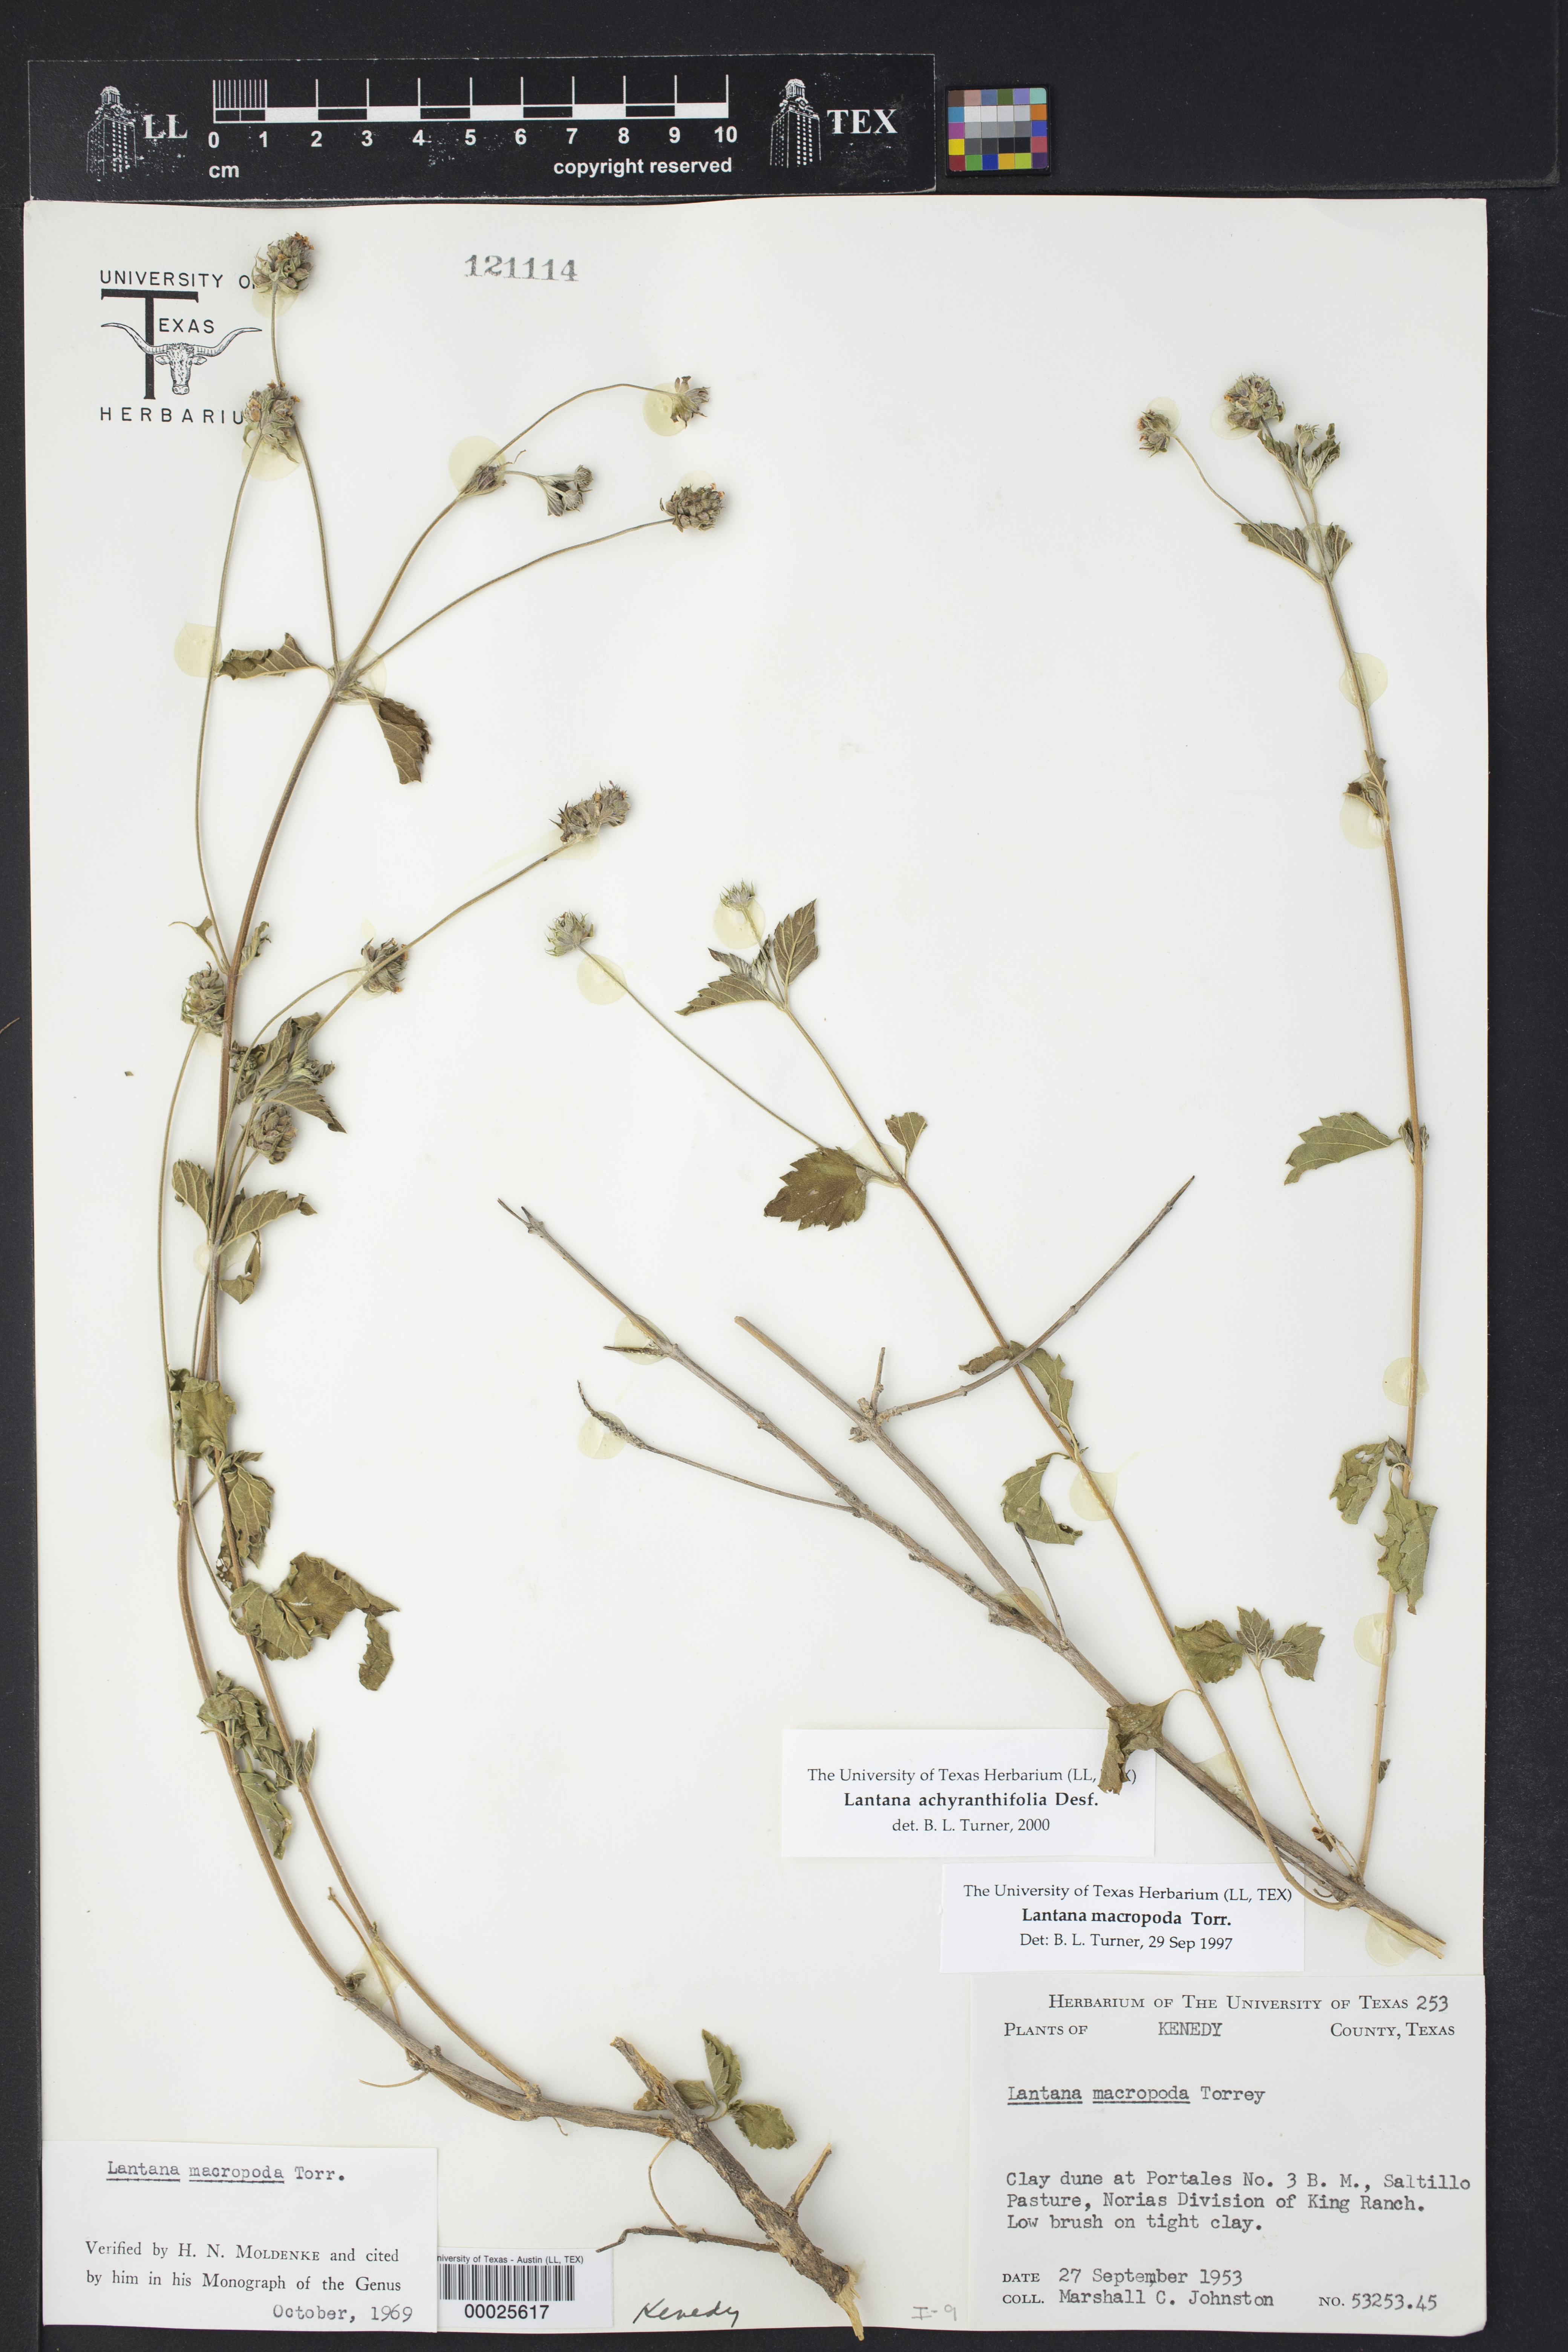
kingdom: Plantae
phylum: Tracheophyta
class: Magnoliopsida
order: Lamiales
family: Verbenaceae
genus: Lantana
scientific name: Lantana achyranthifolia
